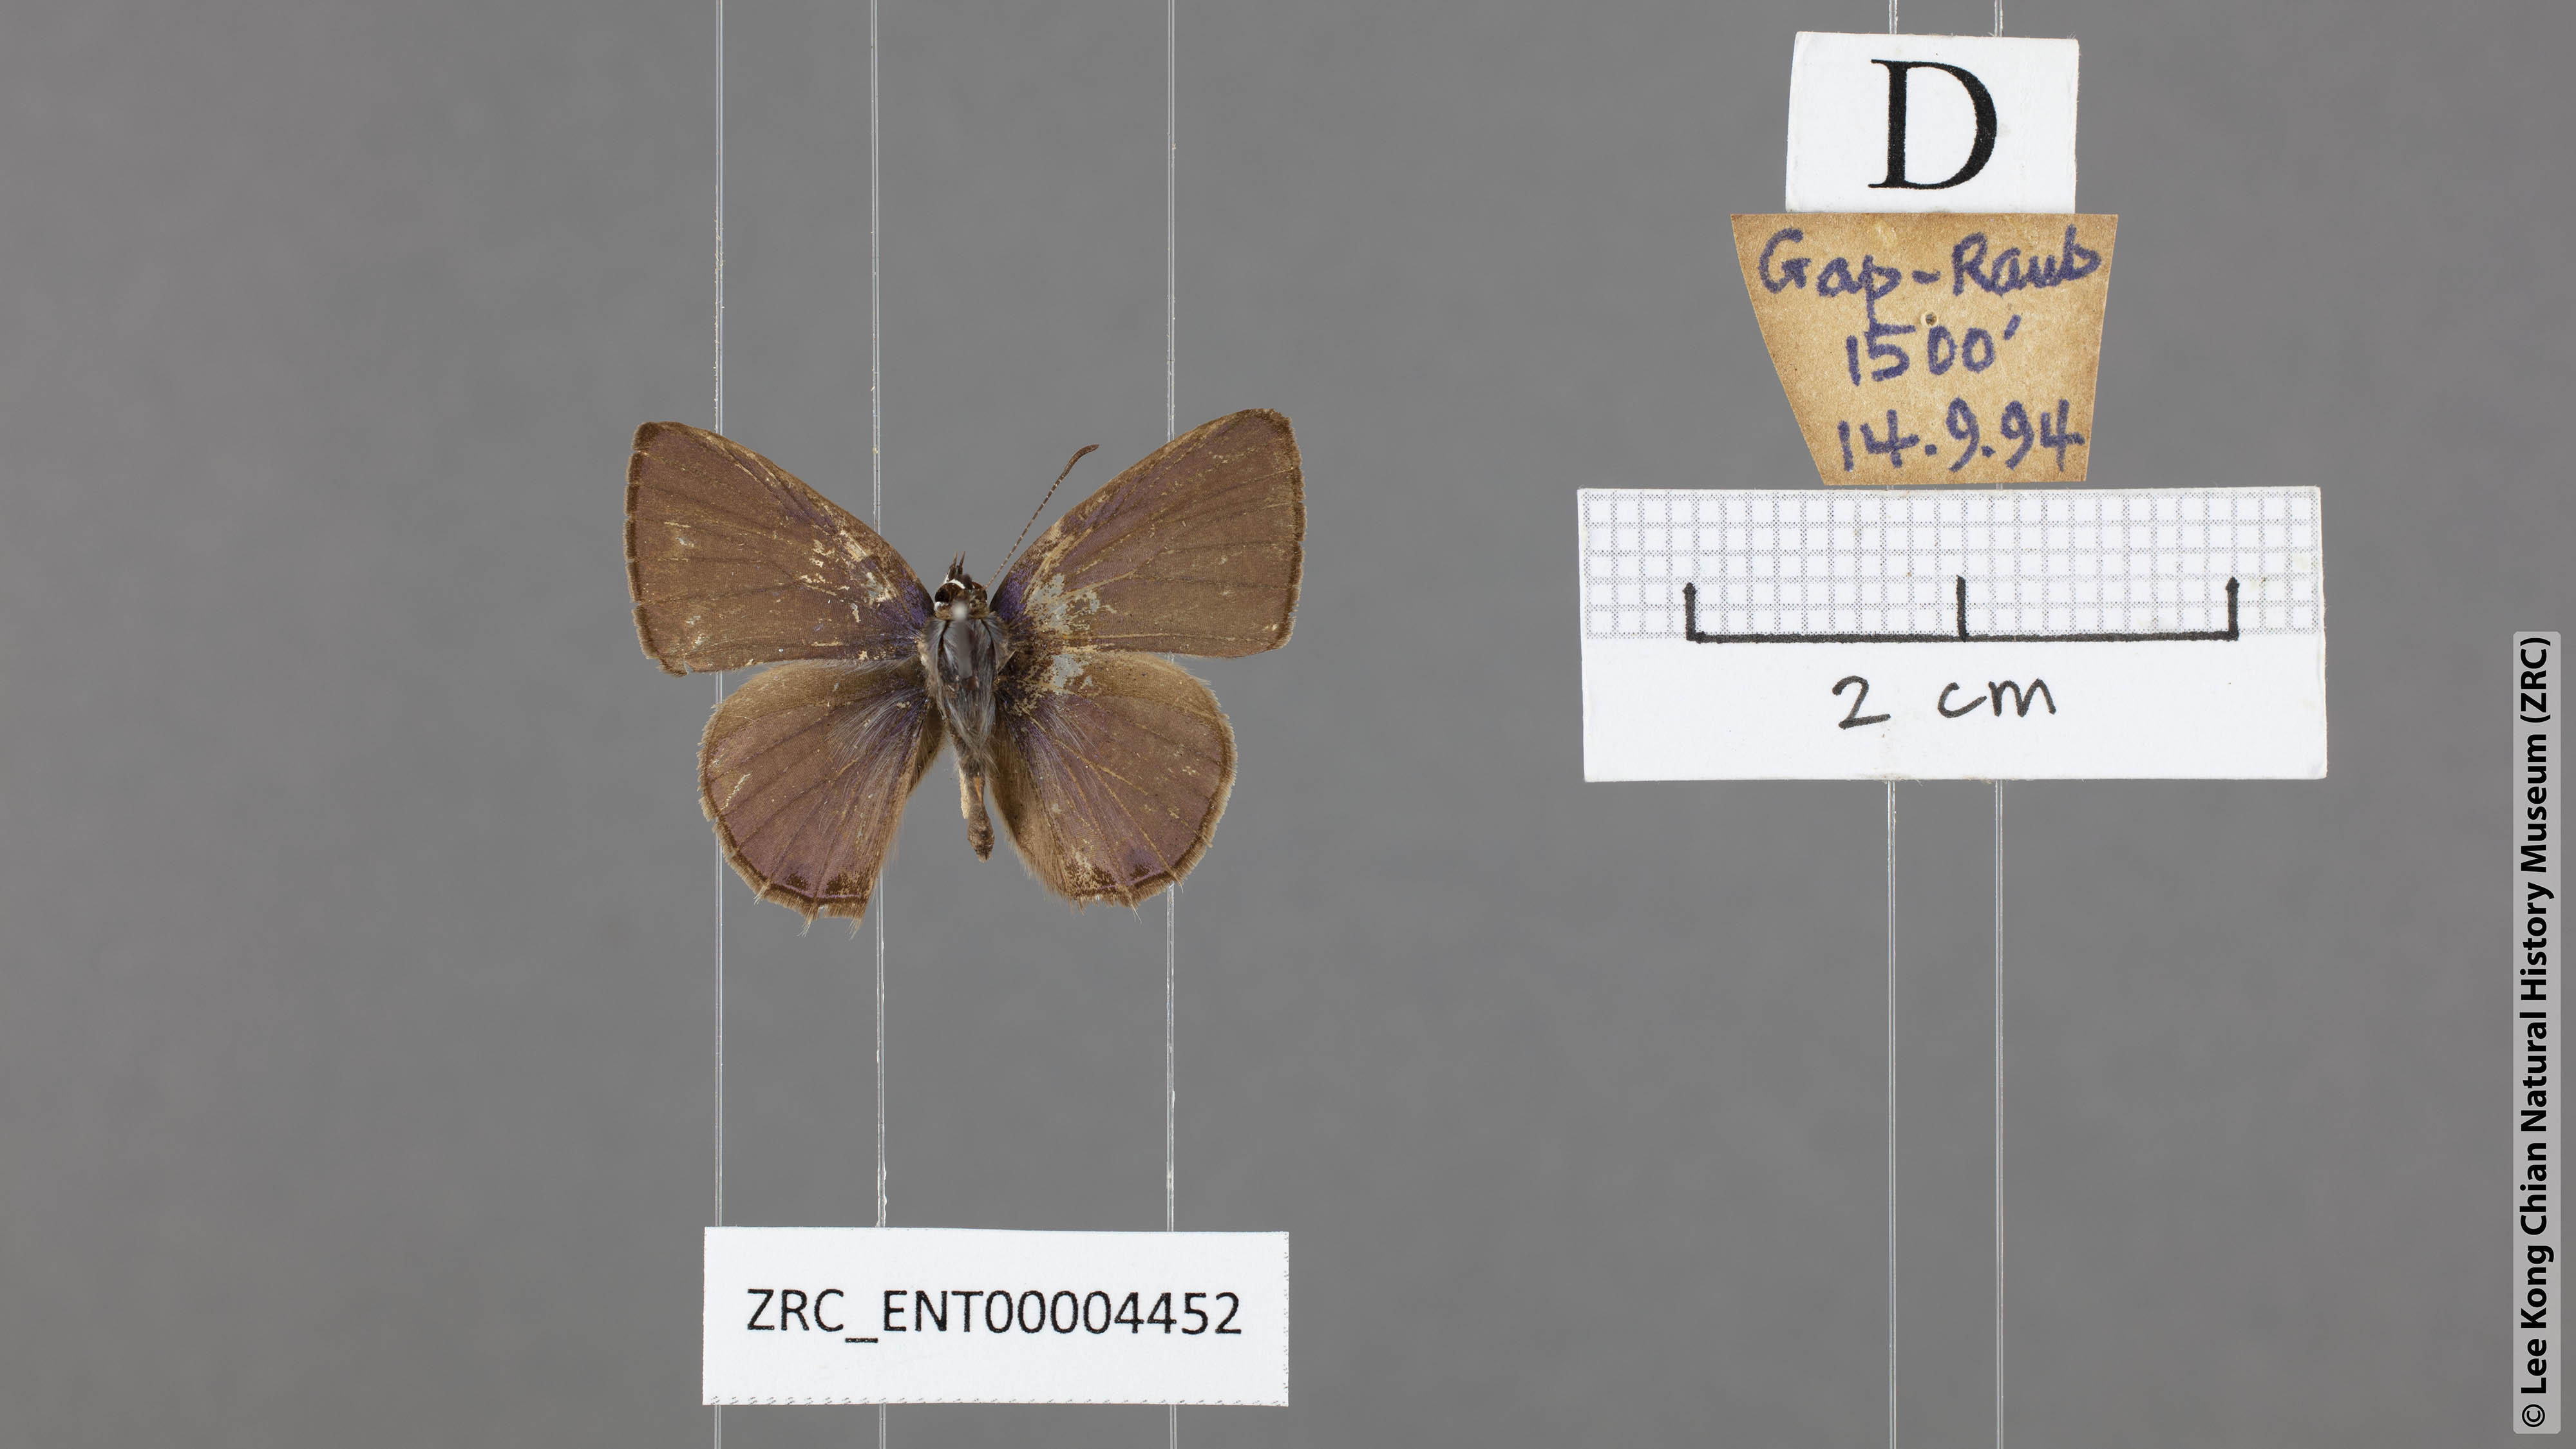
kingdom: Animalia
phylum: Arthropoda
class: Insecta
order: Lepidoptera
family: Lycaenidae
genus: Prosotas
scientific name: Prosotas dubiosa
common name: Tailless lineblue
